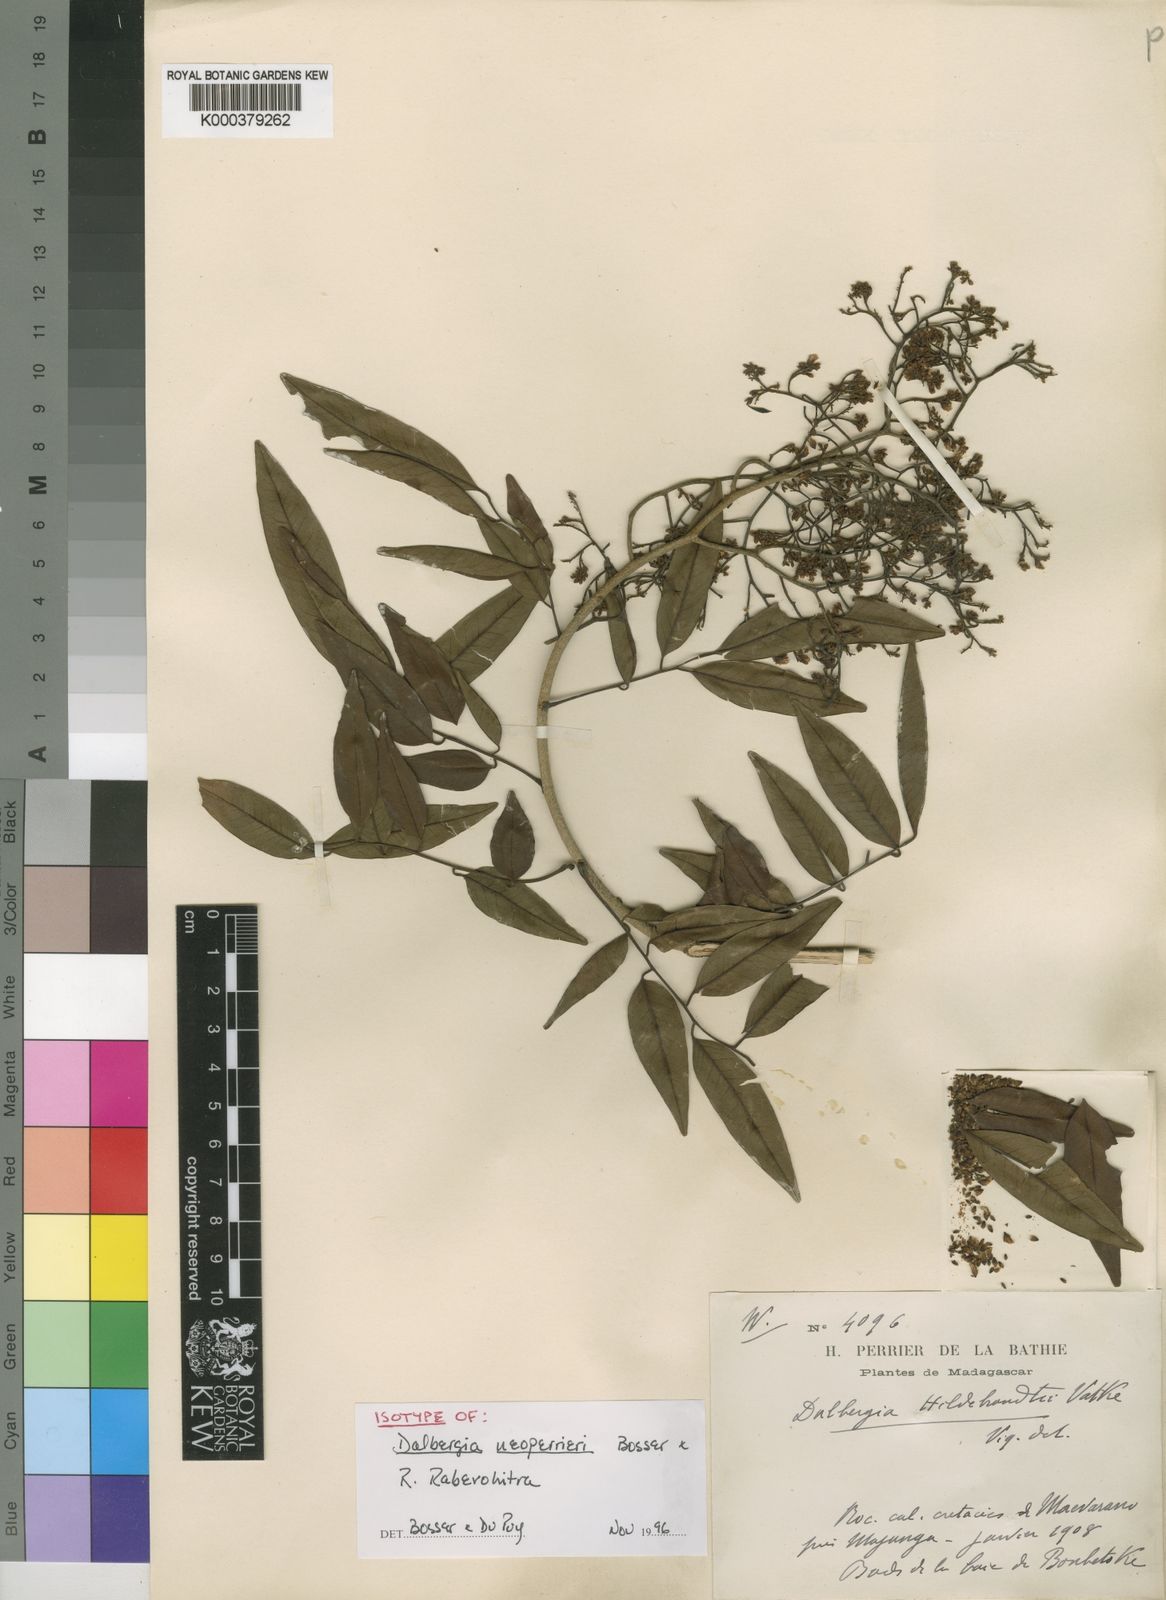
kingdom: Plantae
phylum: Tracheophyta
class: Magnoliopsida
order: Fabales
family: Fabaceae
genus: Dalbergia
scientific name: Dalbergia neoperrieri
